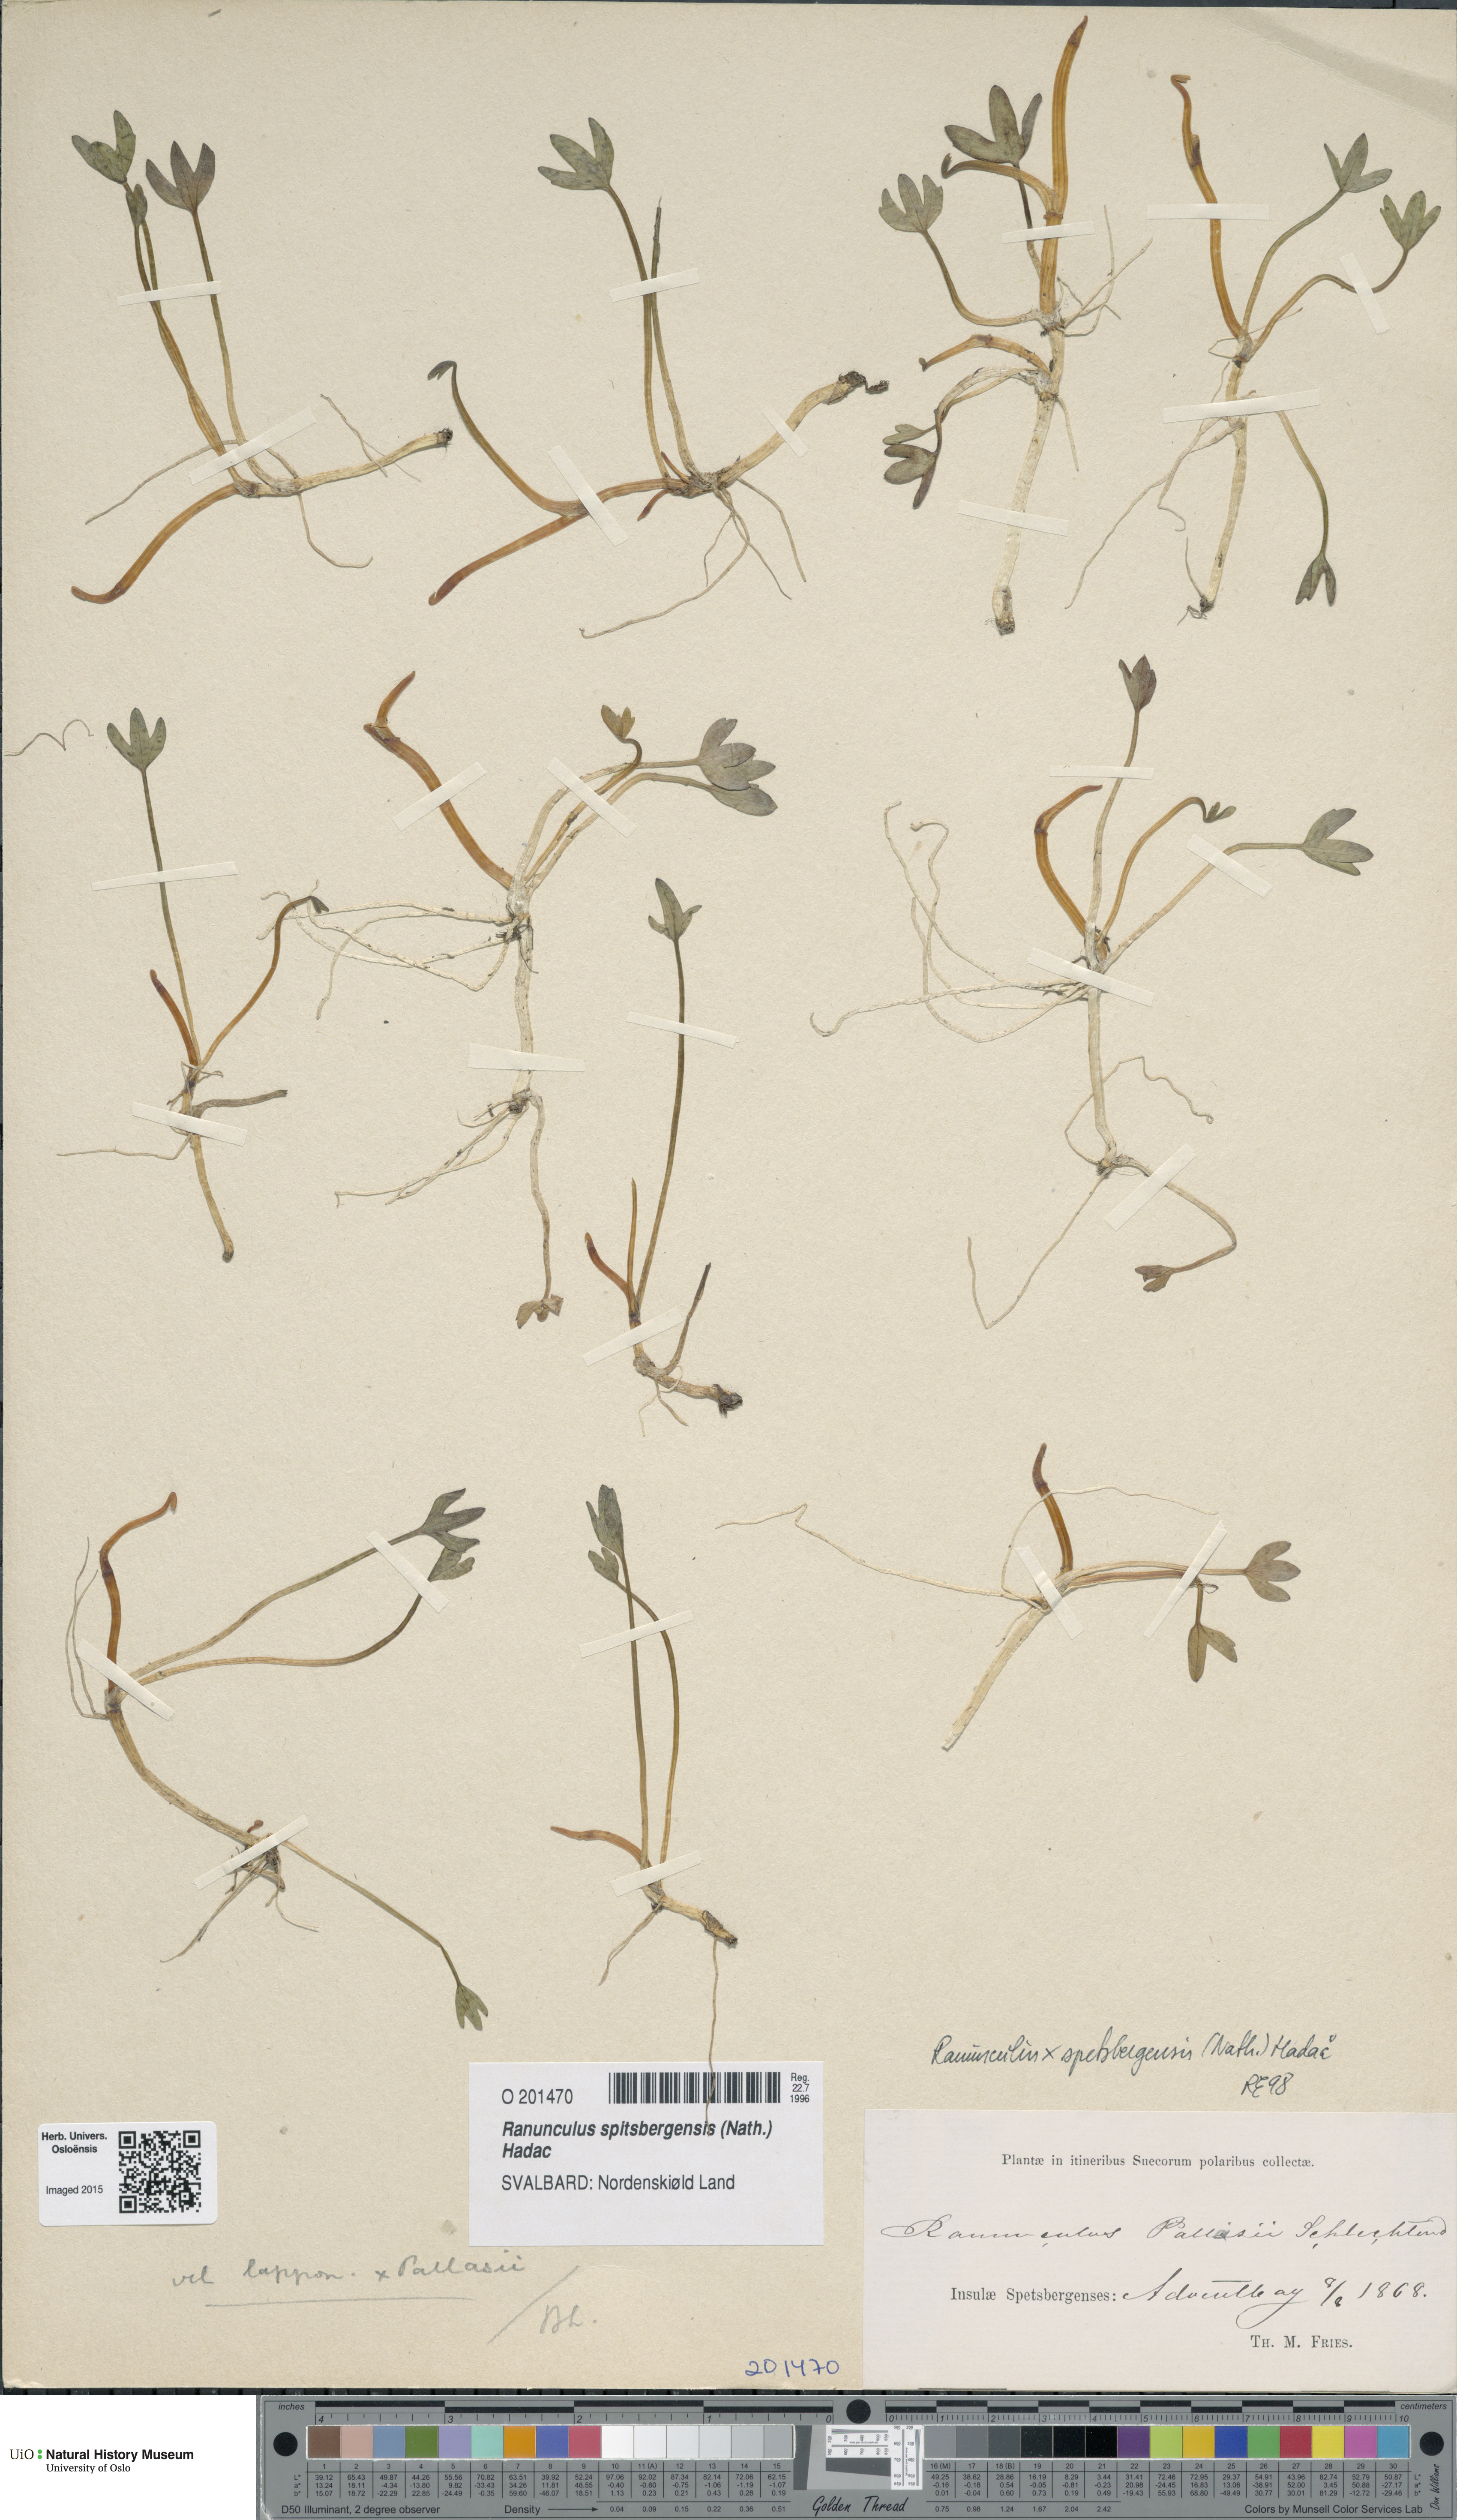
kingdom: Plantae
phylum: Tracheophyta
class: Magnoliopsida
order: Ranunculales
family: Ranunculaceae
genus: Coptidium
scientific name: Coptidium spitsbergense
